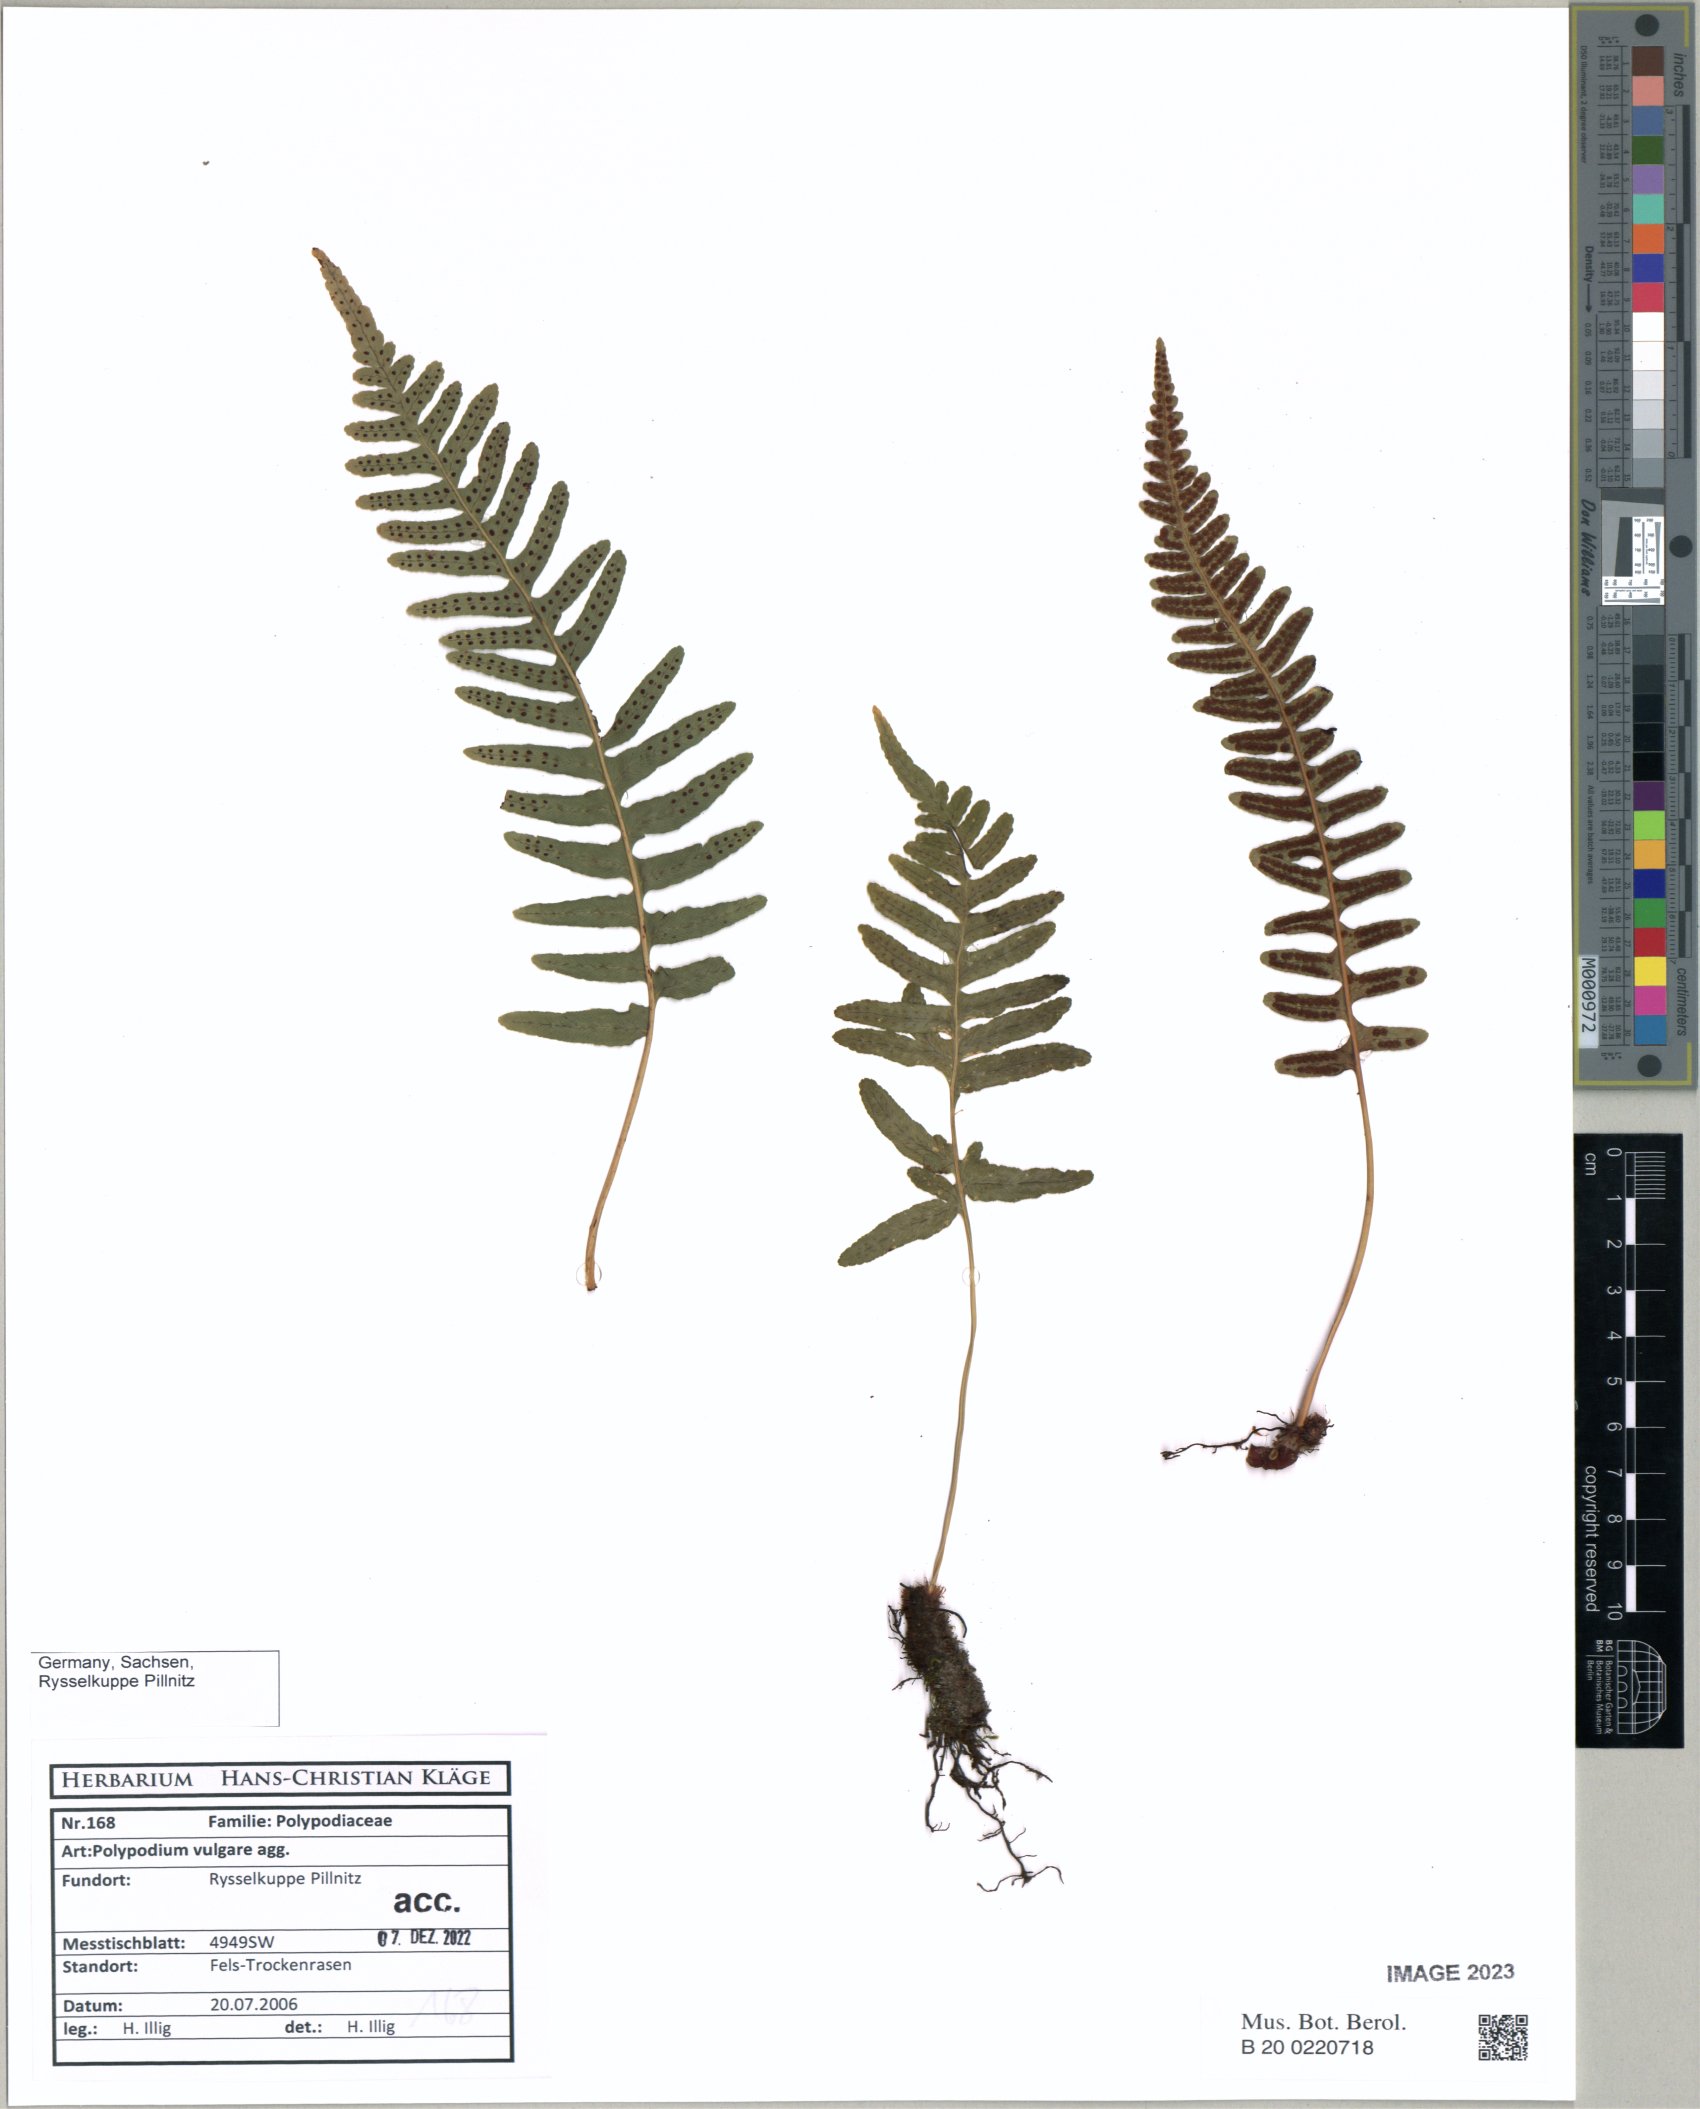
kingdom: Plantae
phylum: Tracheophyta
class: Polypodiopsida
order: Polypodiales
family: Polypodiaceae
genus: Polypodium
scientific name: Polypodium vulgare
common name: Common polypody
